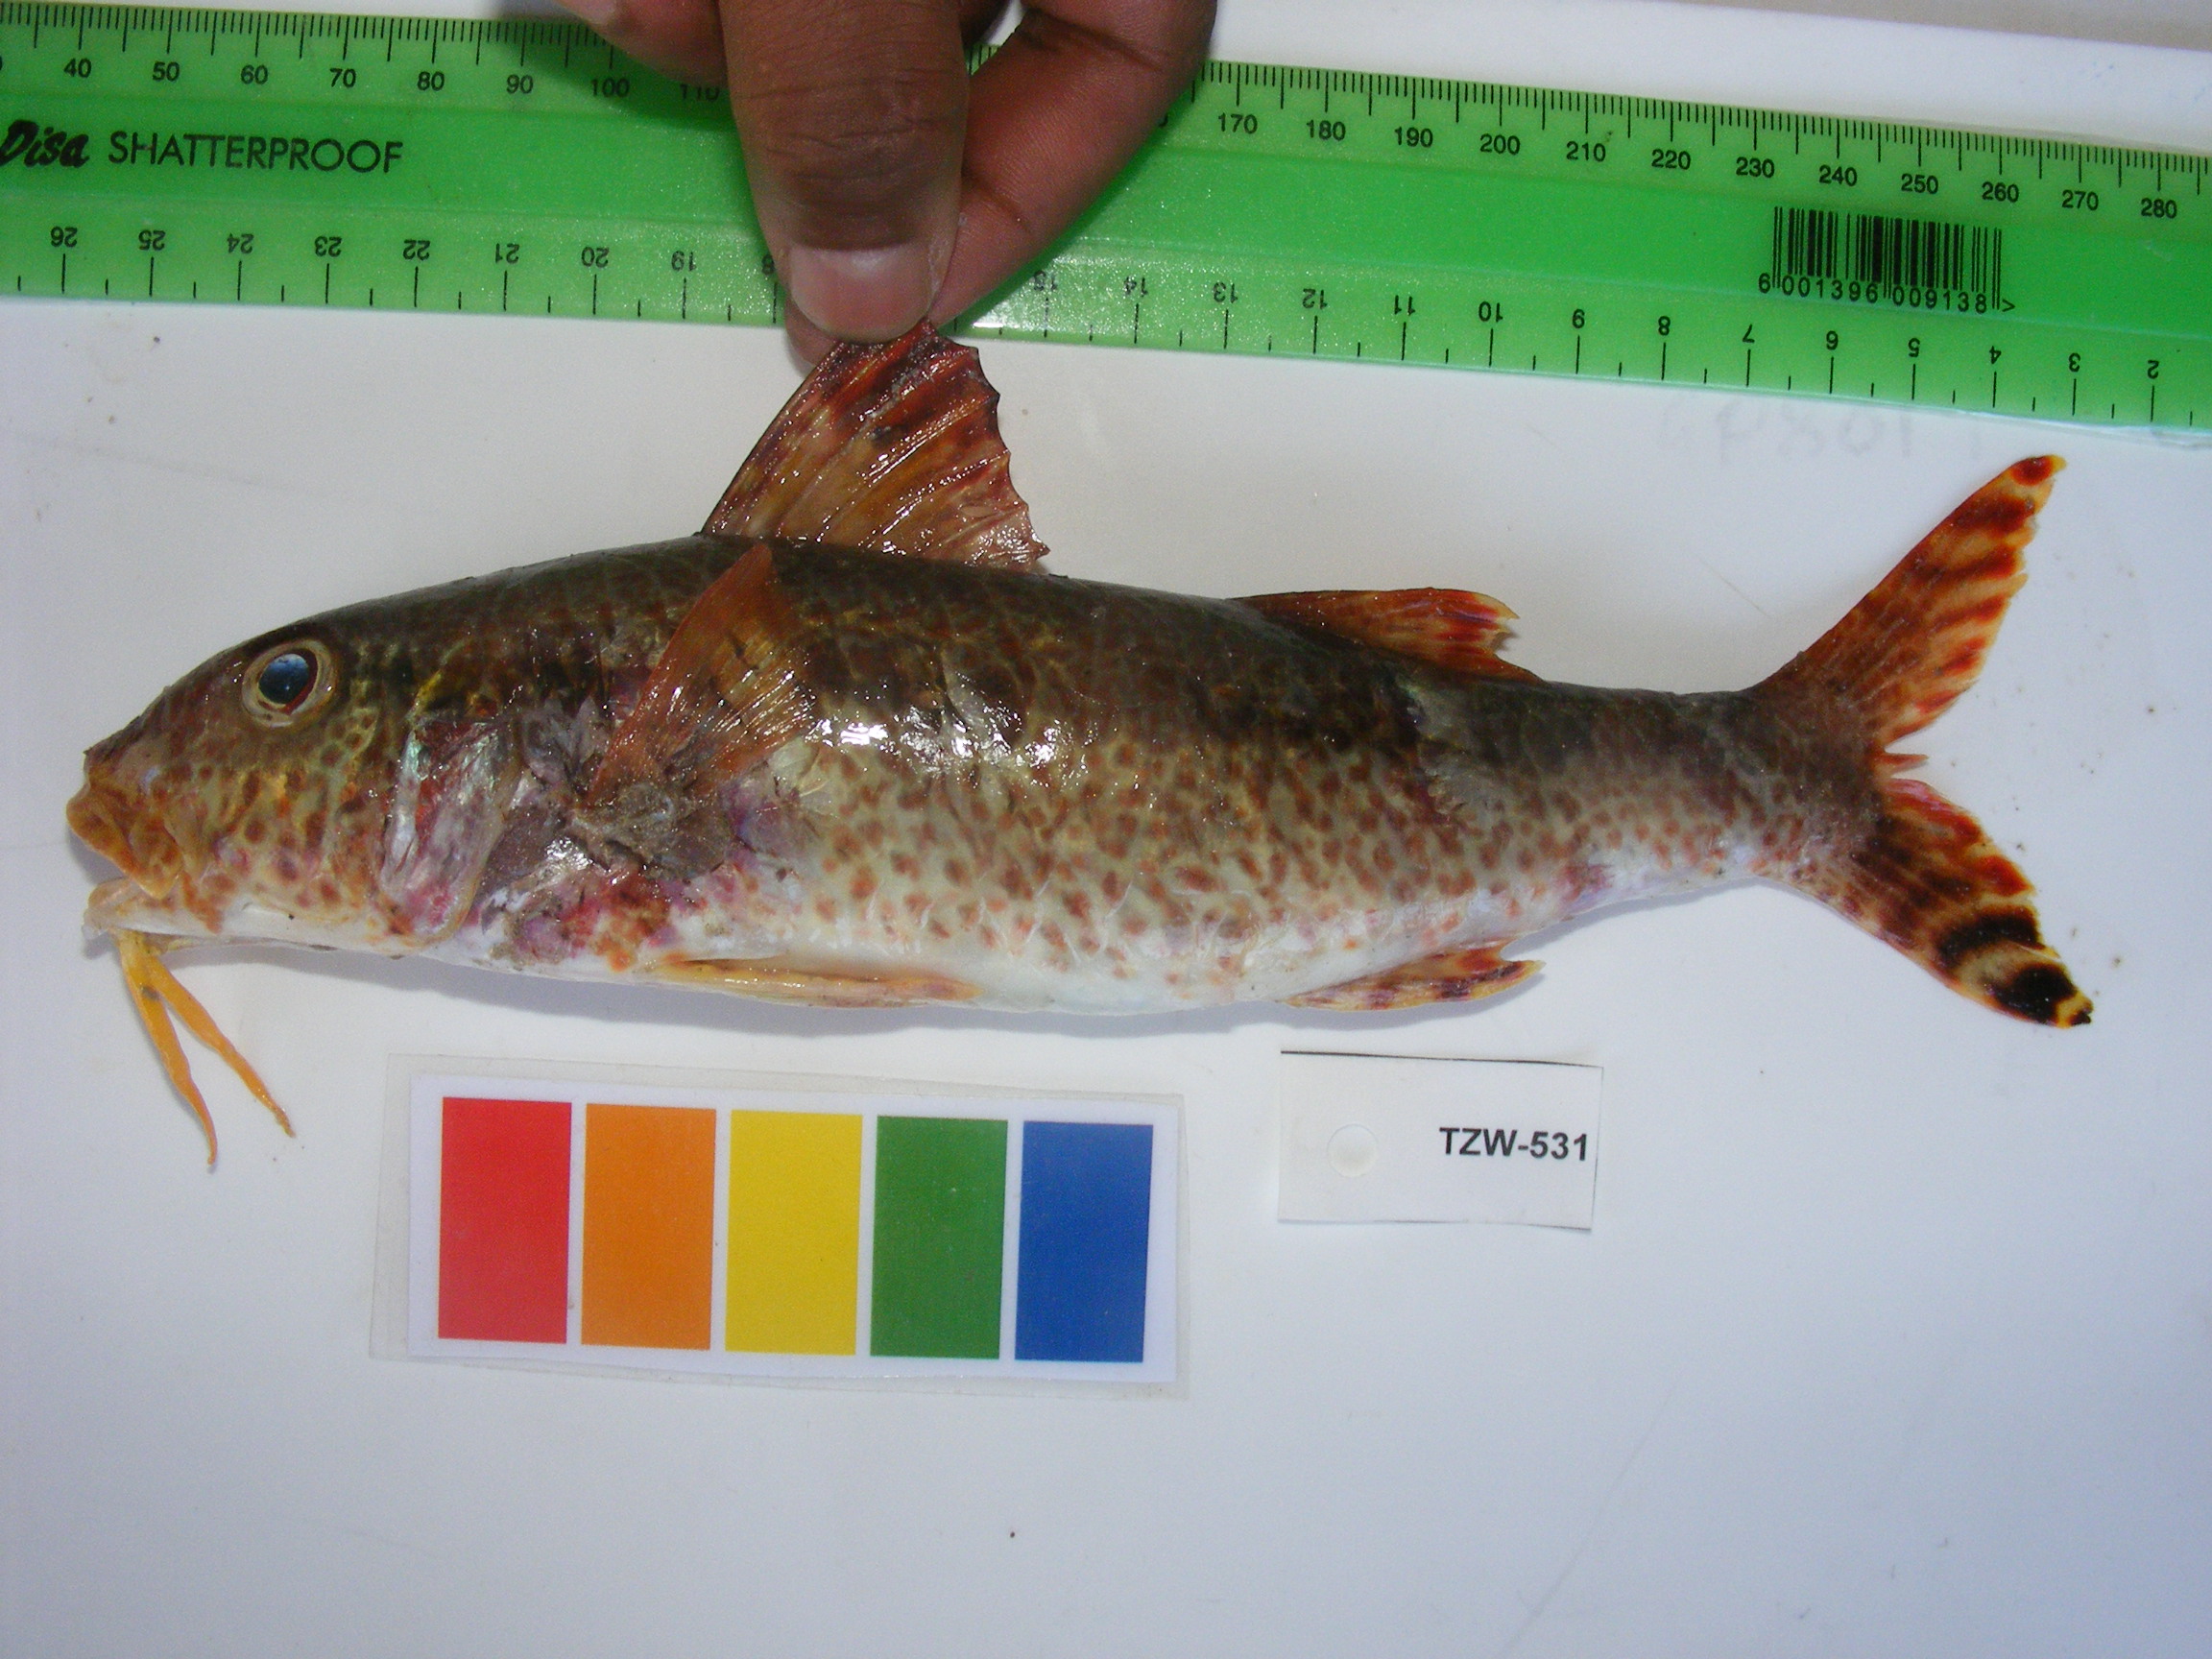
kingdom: Animalia
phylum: Chordata
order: Perciformes
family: Mullidae
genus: Upeneus
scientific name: Upeneus tragula
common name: Freckled goatfish
